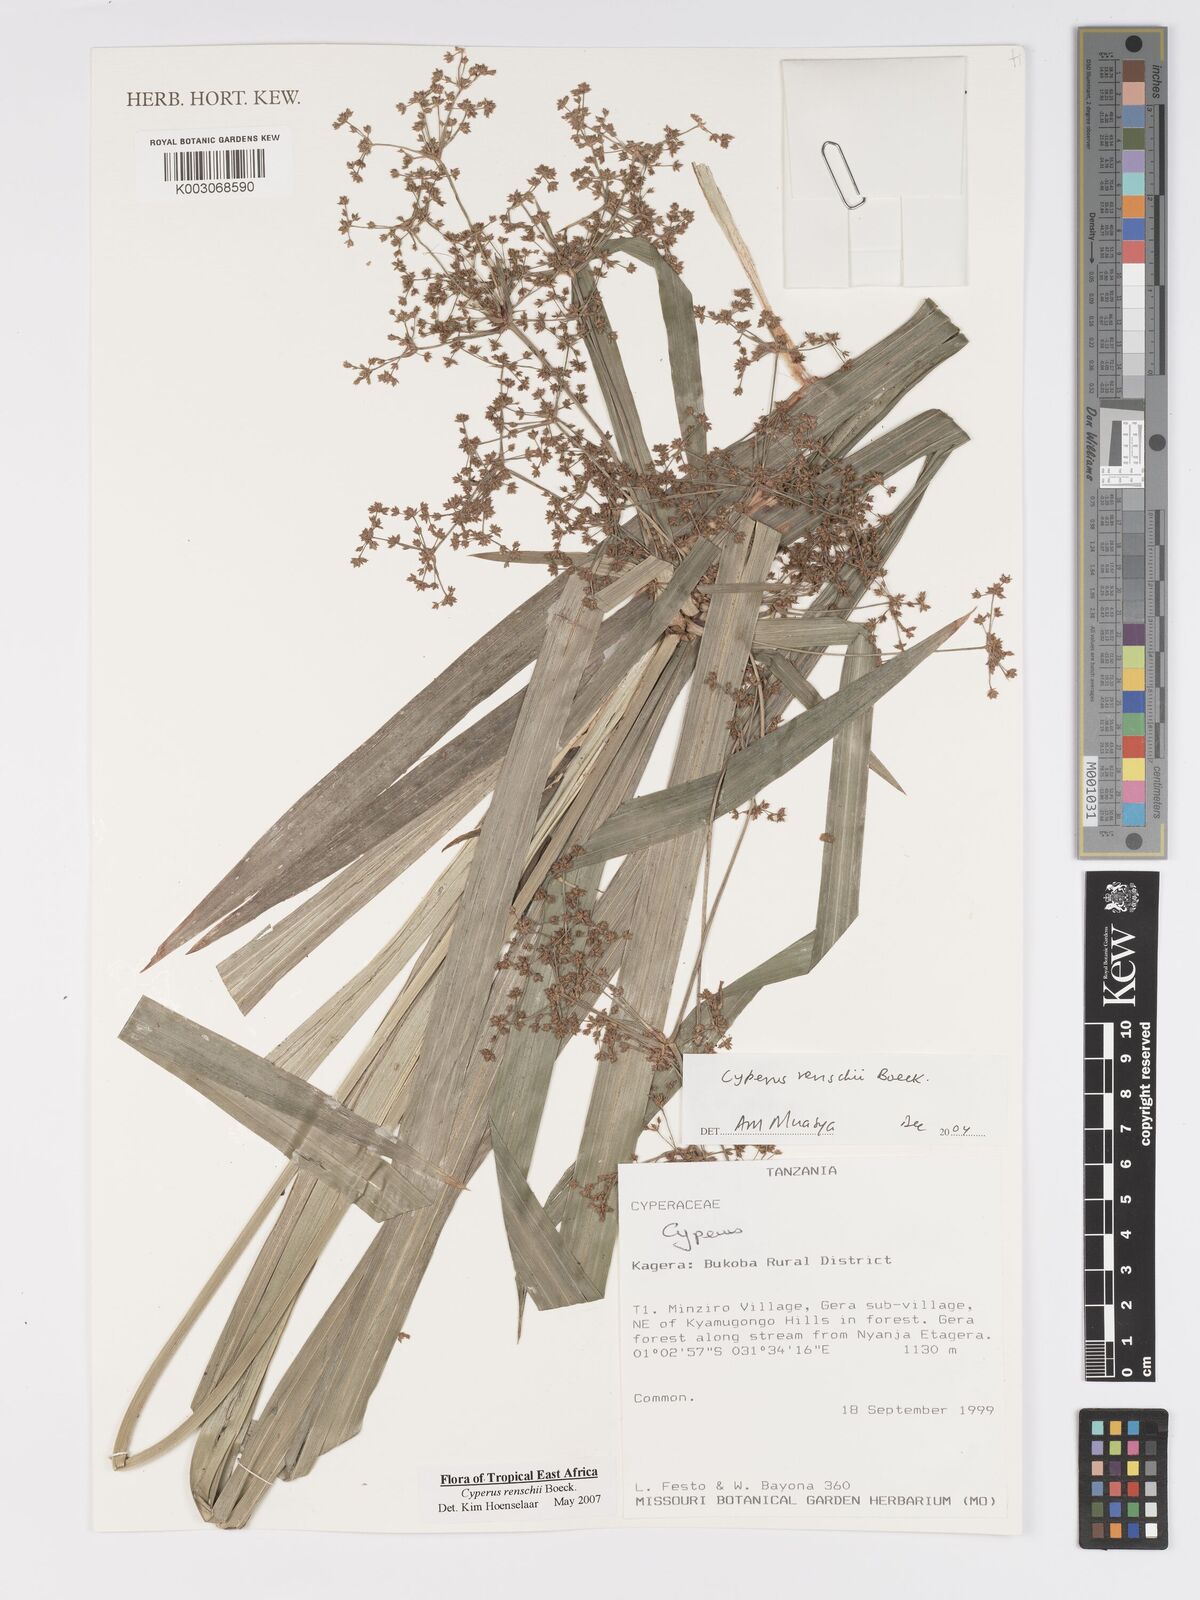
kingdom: Plantae
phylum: Tracheophyta
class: Liliopsida
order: Poales
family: Cyperaceae
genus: Cyperus
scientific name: Cyperus renschii
